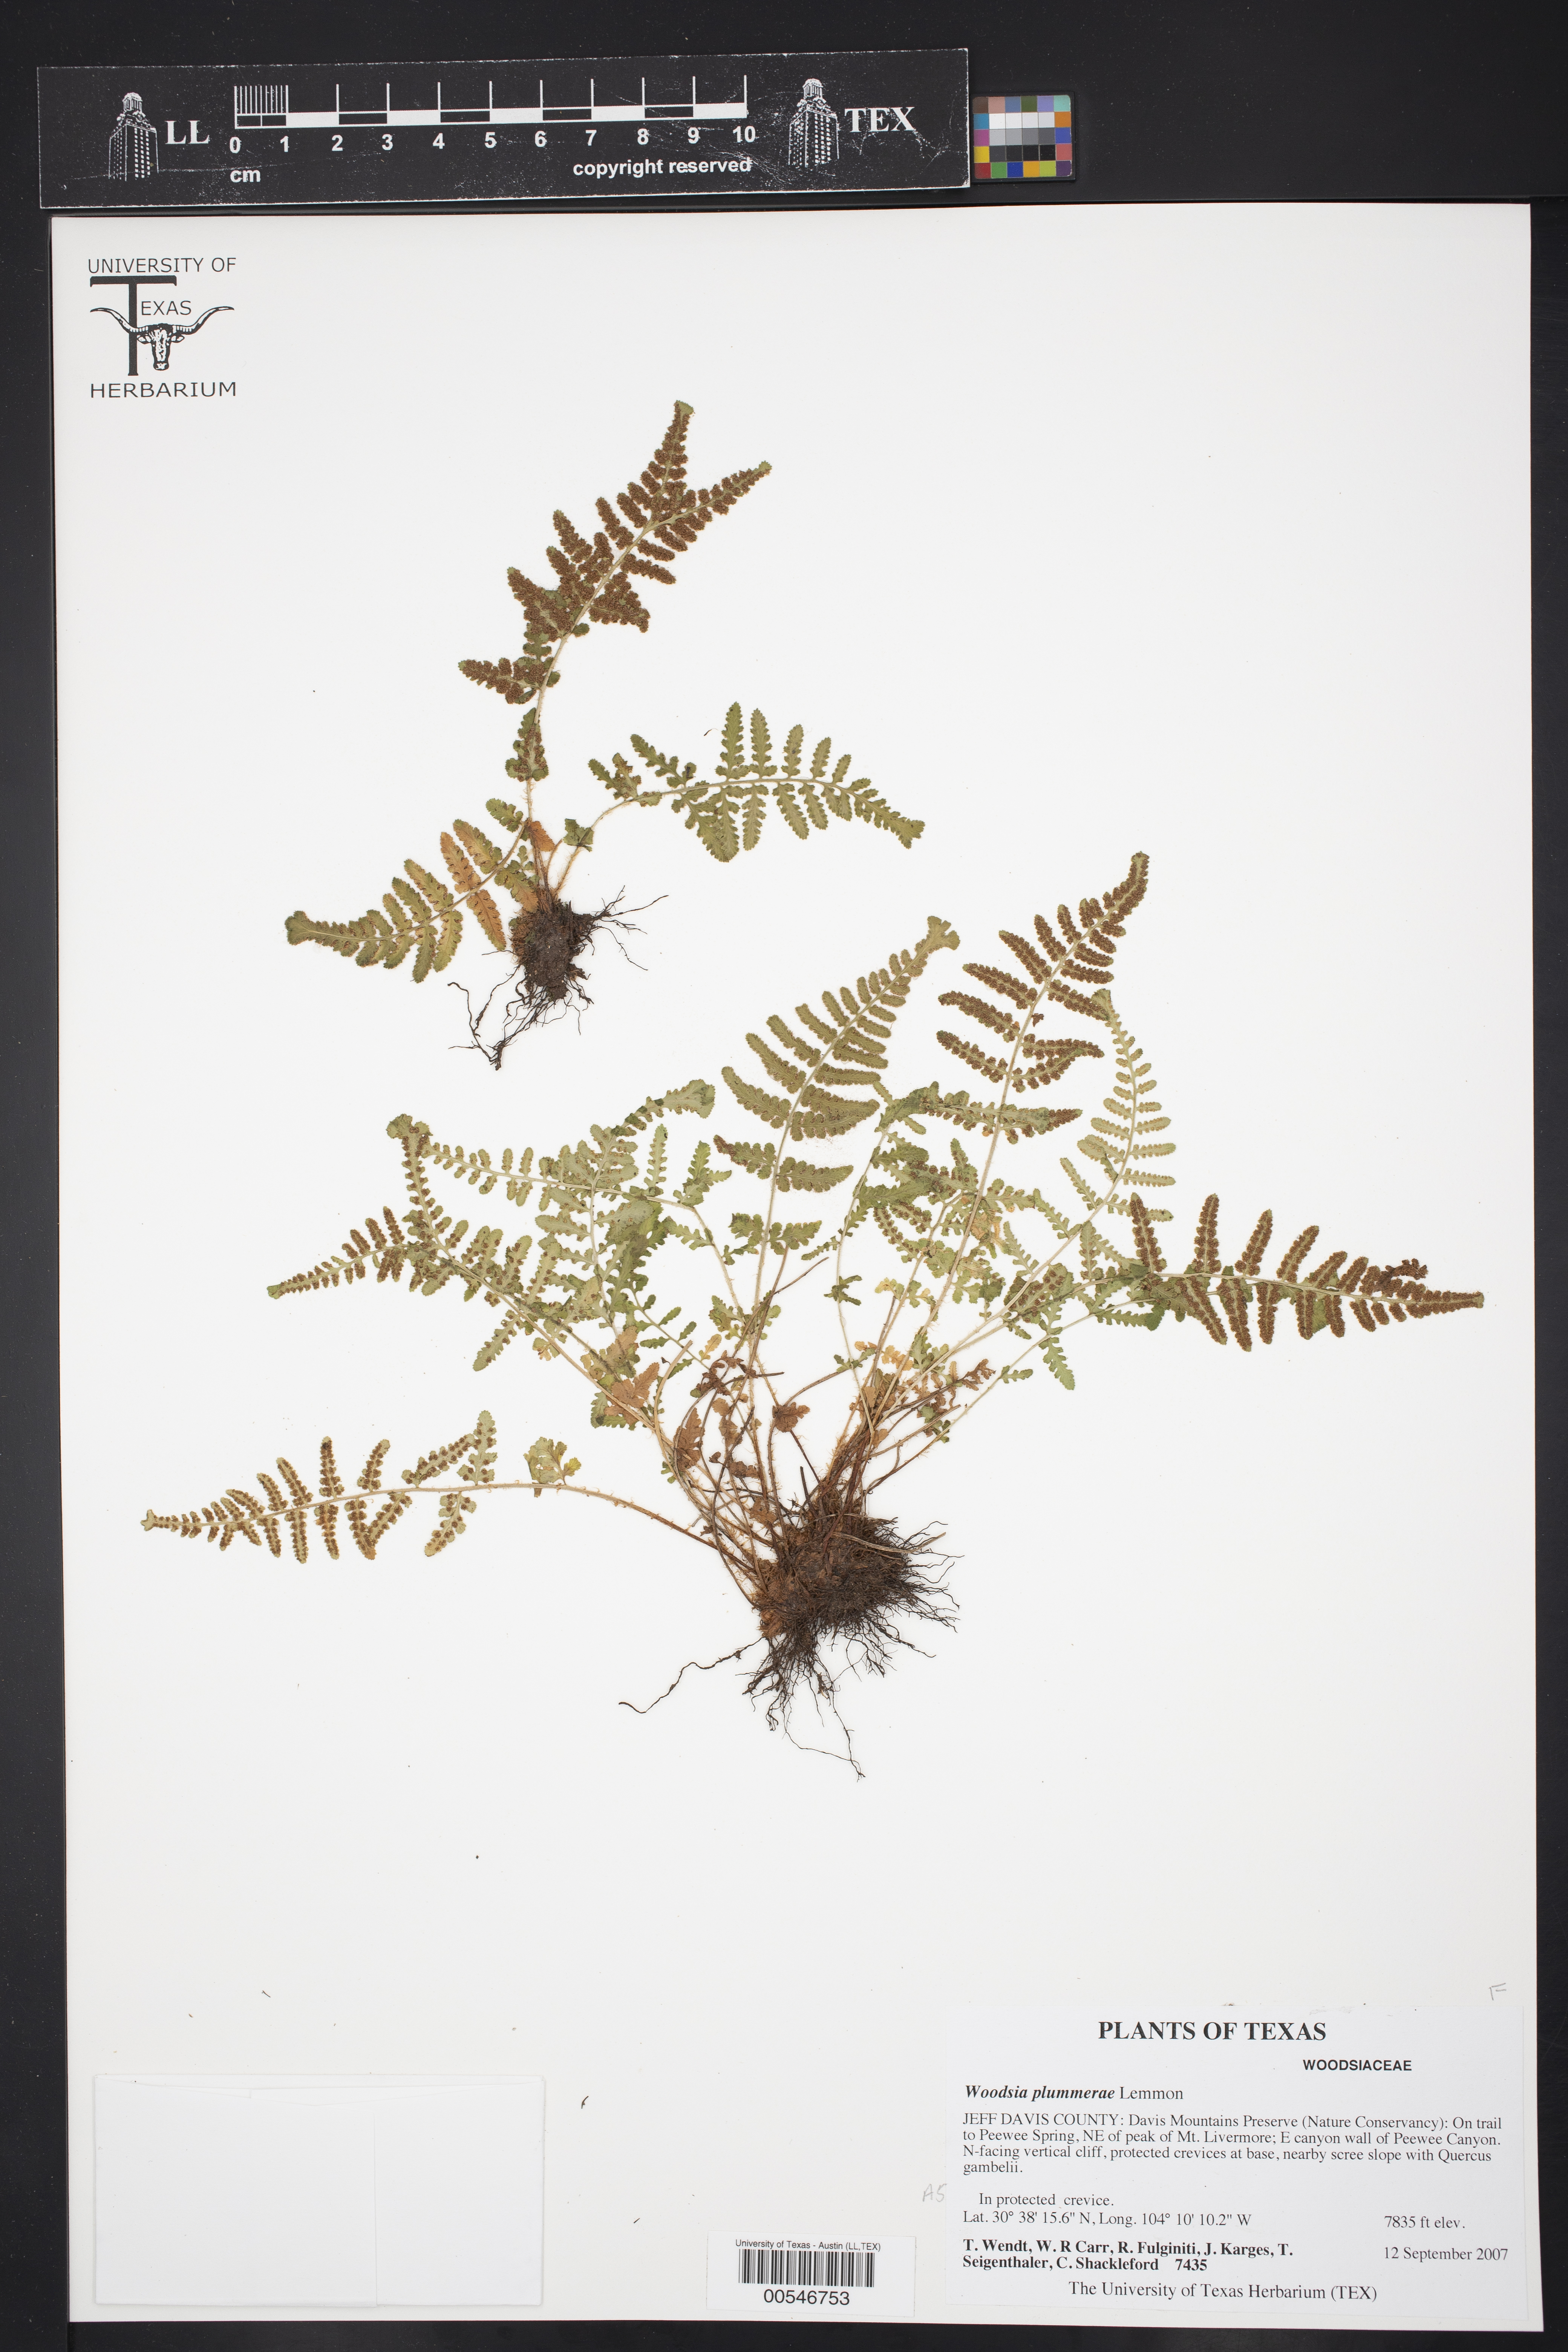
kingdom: Plantae
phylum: Tracheophyta
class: Polypodiopsida
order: Polypodiales
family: Woodsiaceae
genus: Physematium
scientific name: Physematium plummerae
